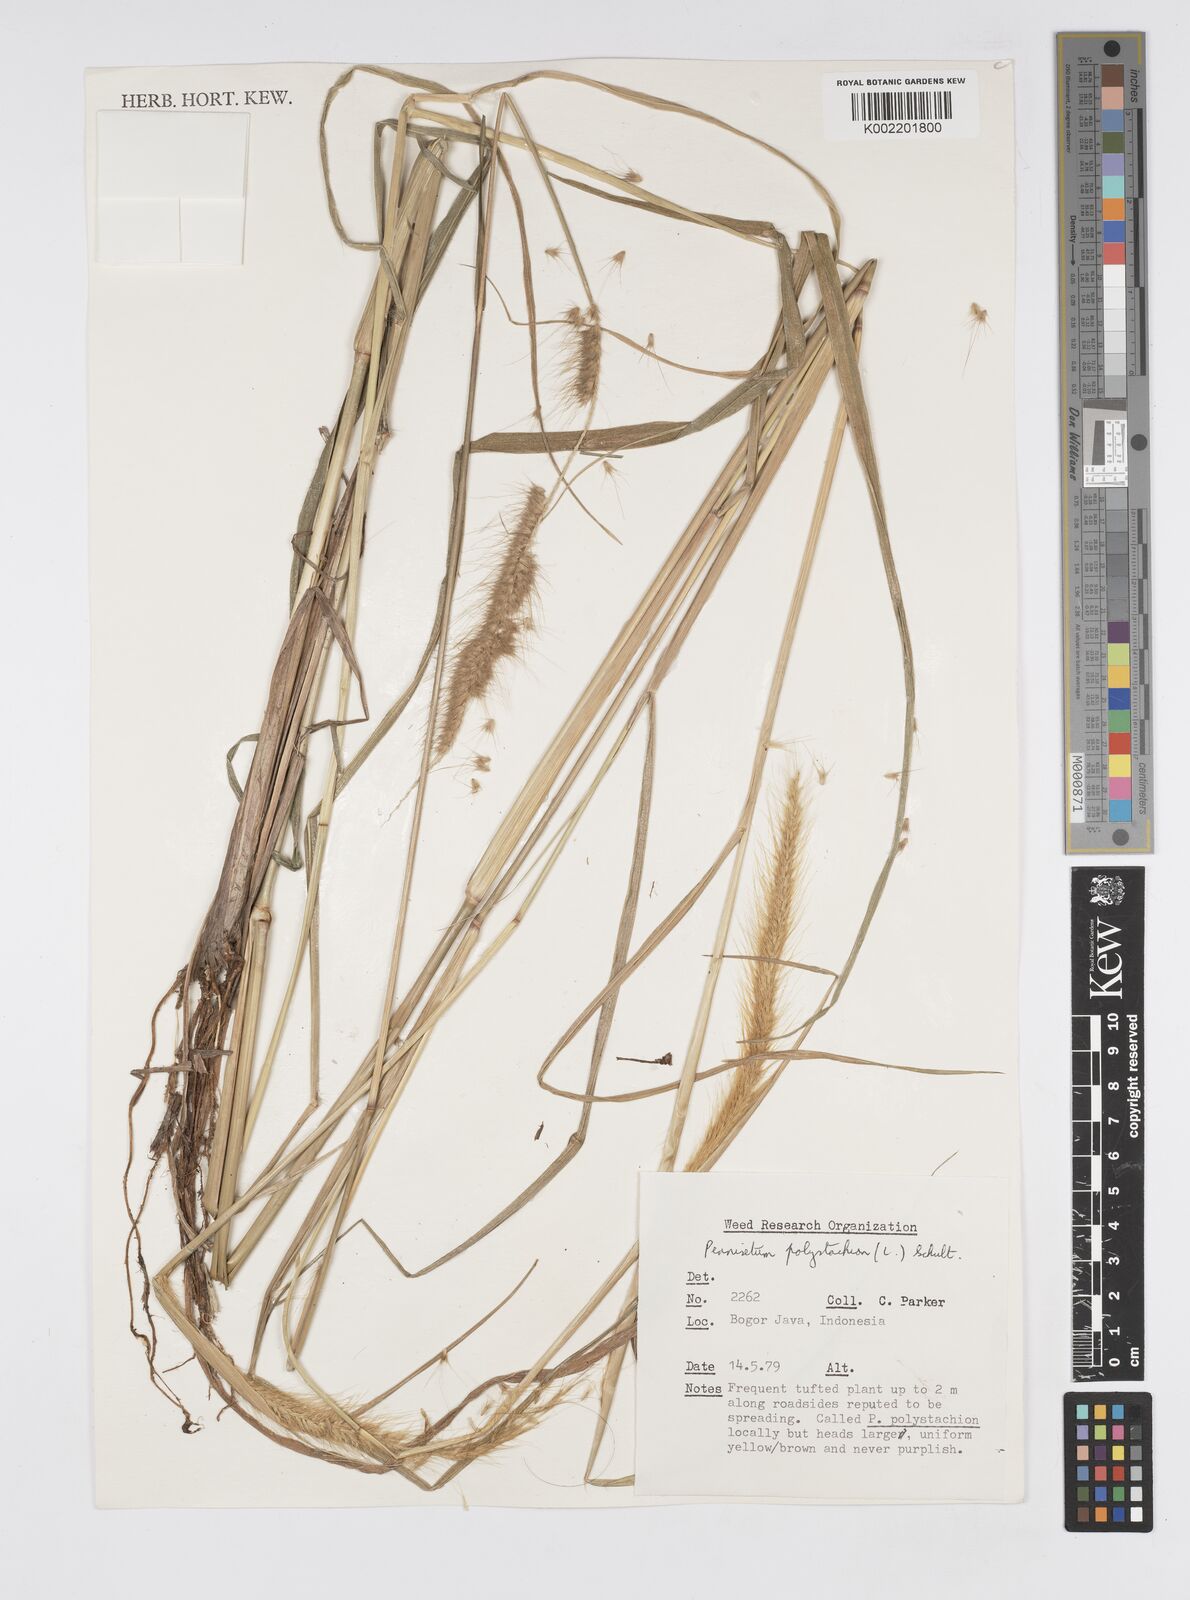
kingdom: Plantae
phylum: Tracheophyta
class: Liliopsida
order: Poales
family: Poaceae
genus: Setaria
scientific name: Setaria parviflora
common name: Knotroot bristle-grass
